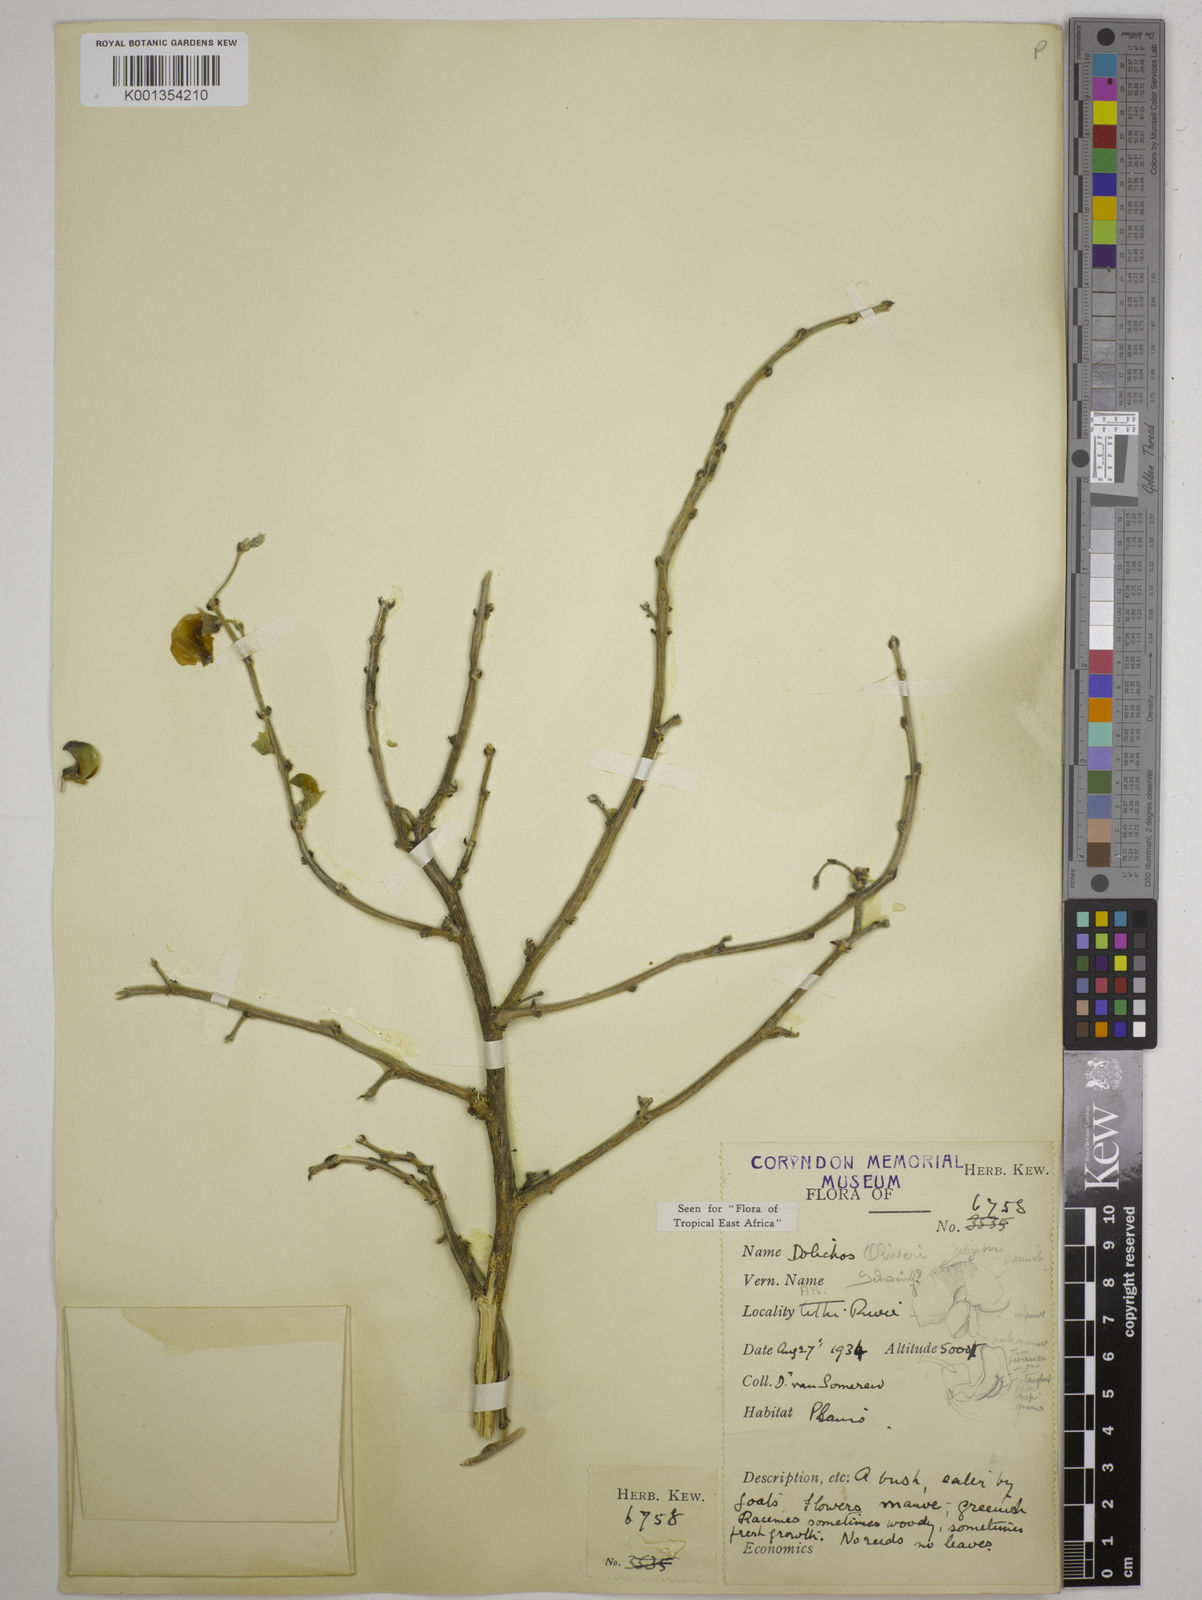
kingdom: Plantae
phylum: Tracheophyta
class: Magnoliopsida
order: Fabales
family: Fabaceae
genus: Dolichos
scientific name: Dolichos
